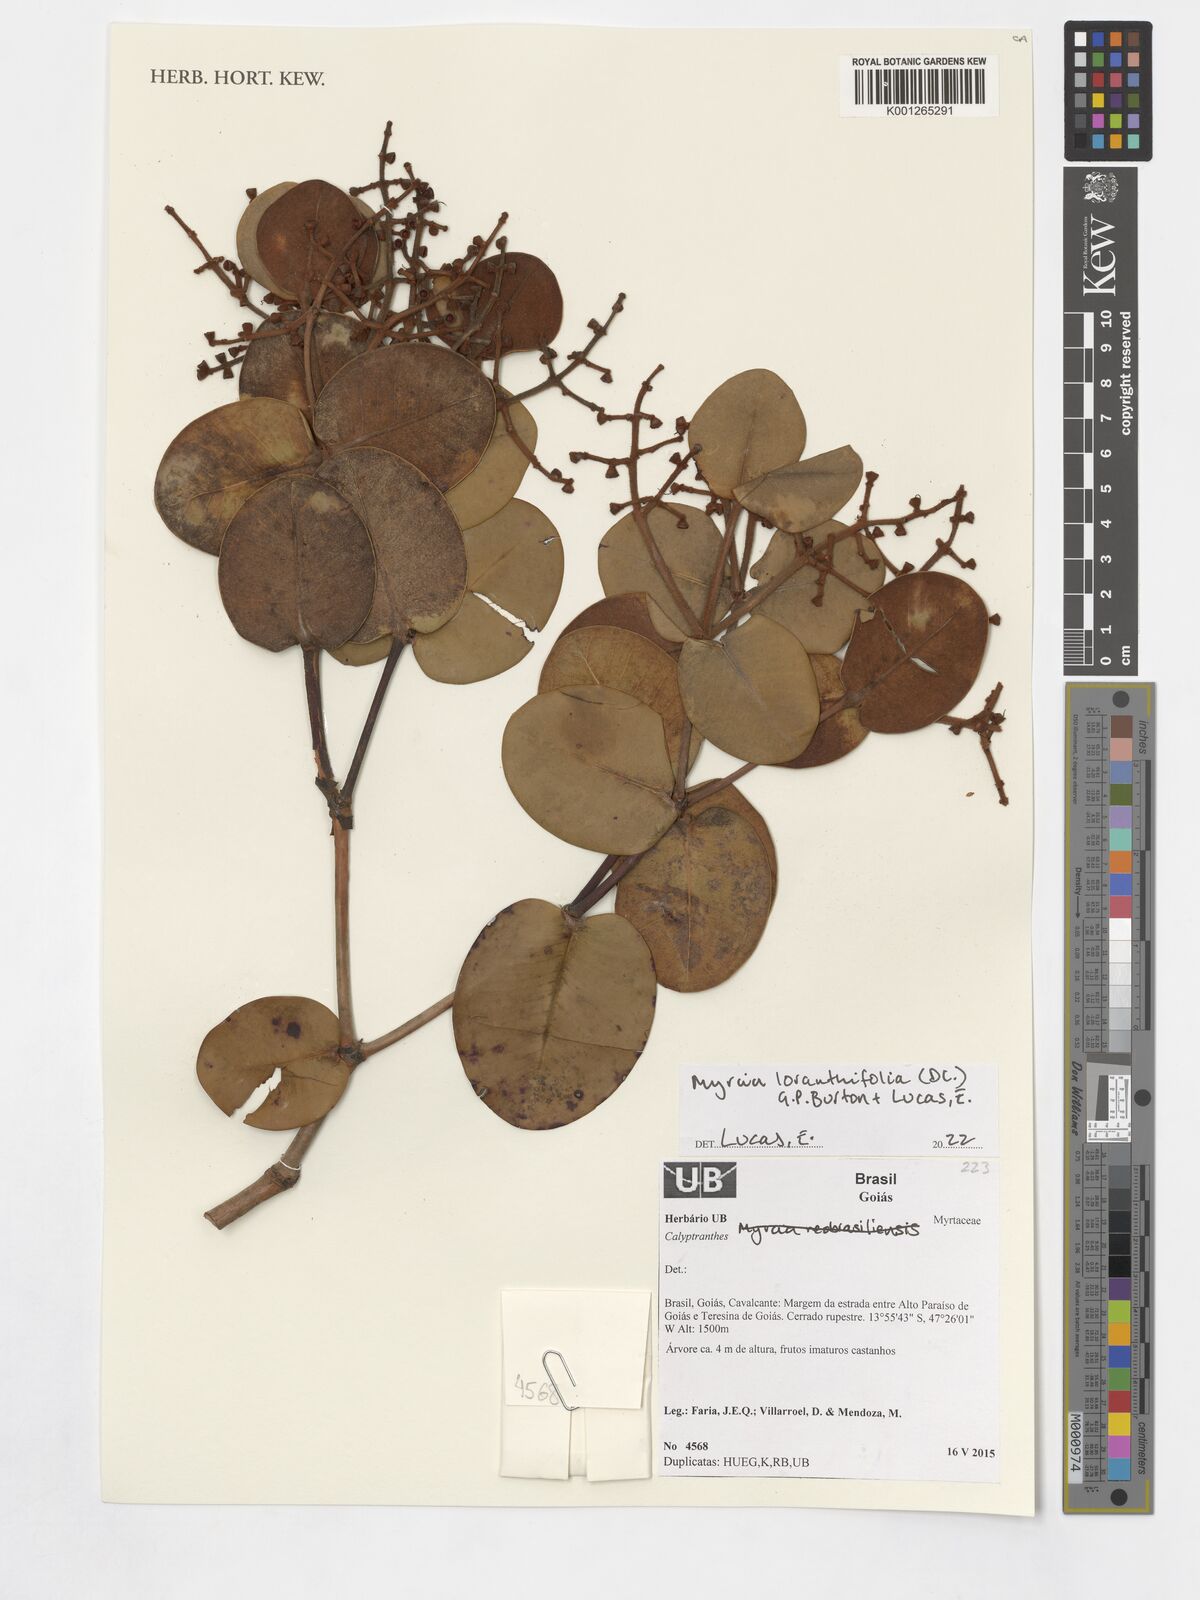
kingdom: Plantae
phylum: Tracheophyta
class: Magnoliopsida
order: Myrtales
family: Myrtaceae
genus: Myrcia
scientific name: Myrcia neobrasiliensis
